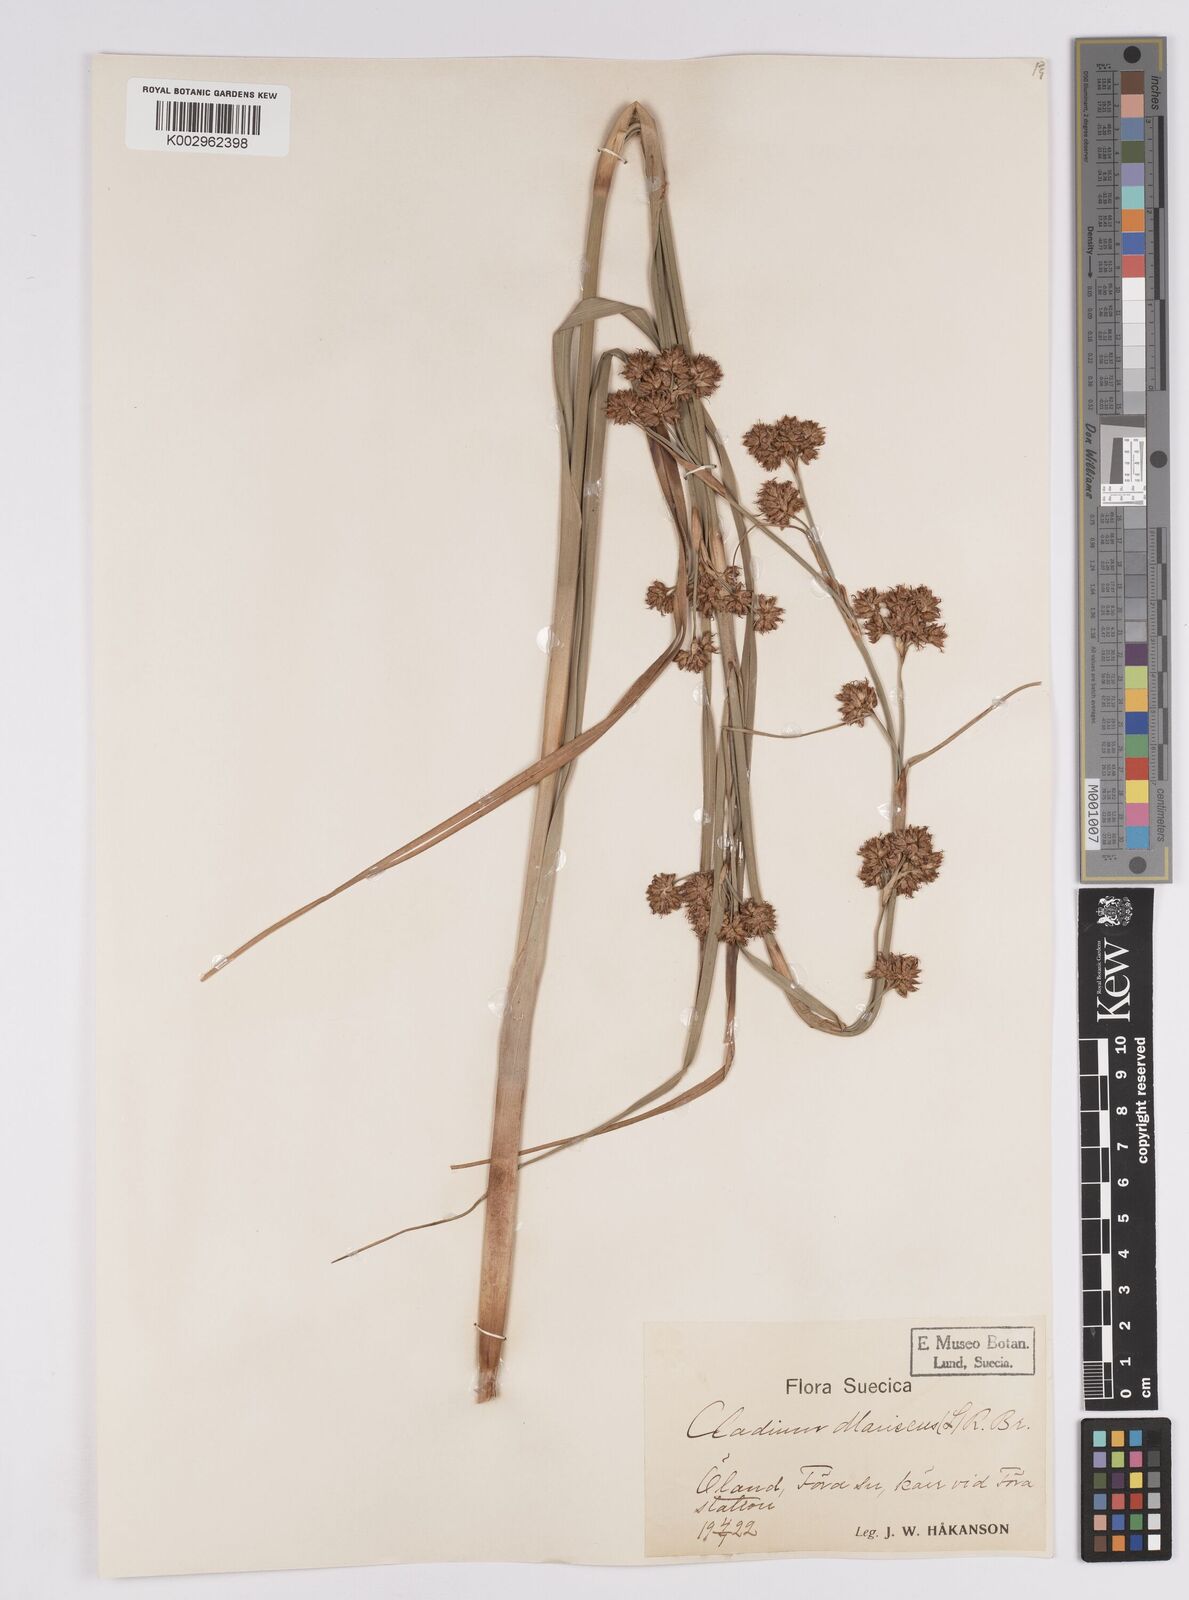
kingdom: Plantae
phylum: Tracheophyta
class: Liliopsida
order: Poales
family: Cyperaceae
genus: Cladium
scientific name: Cladium mariscus
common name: Great fen-sedge
